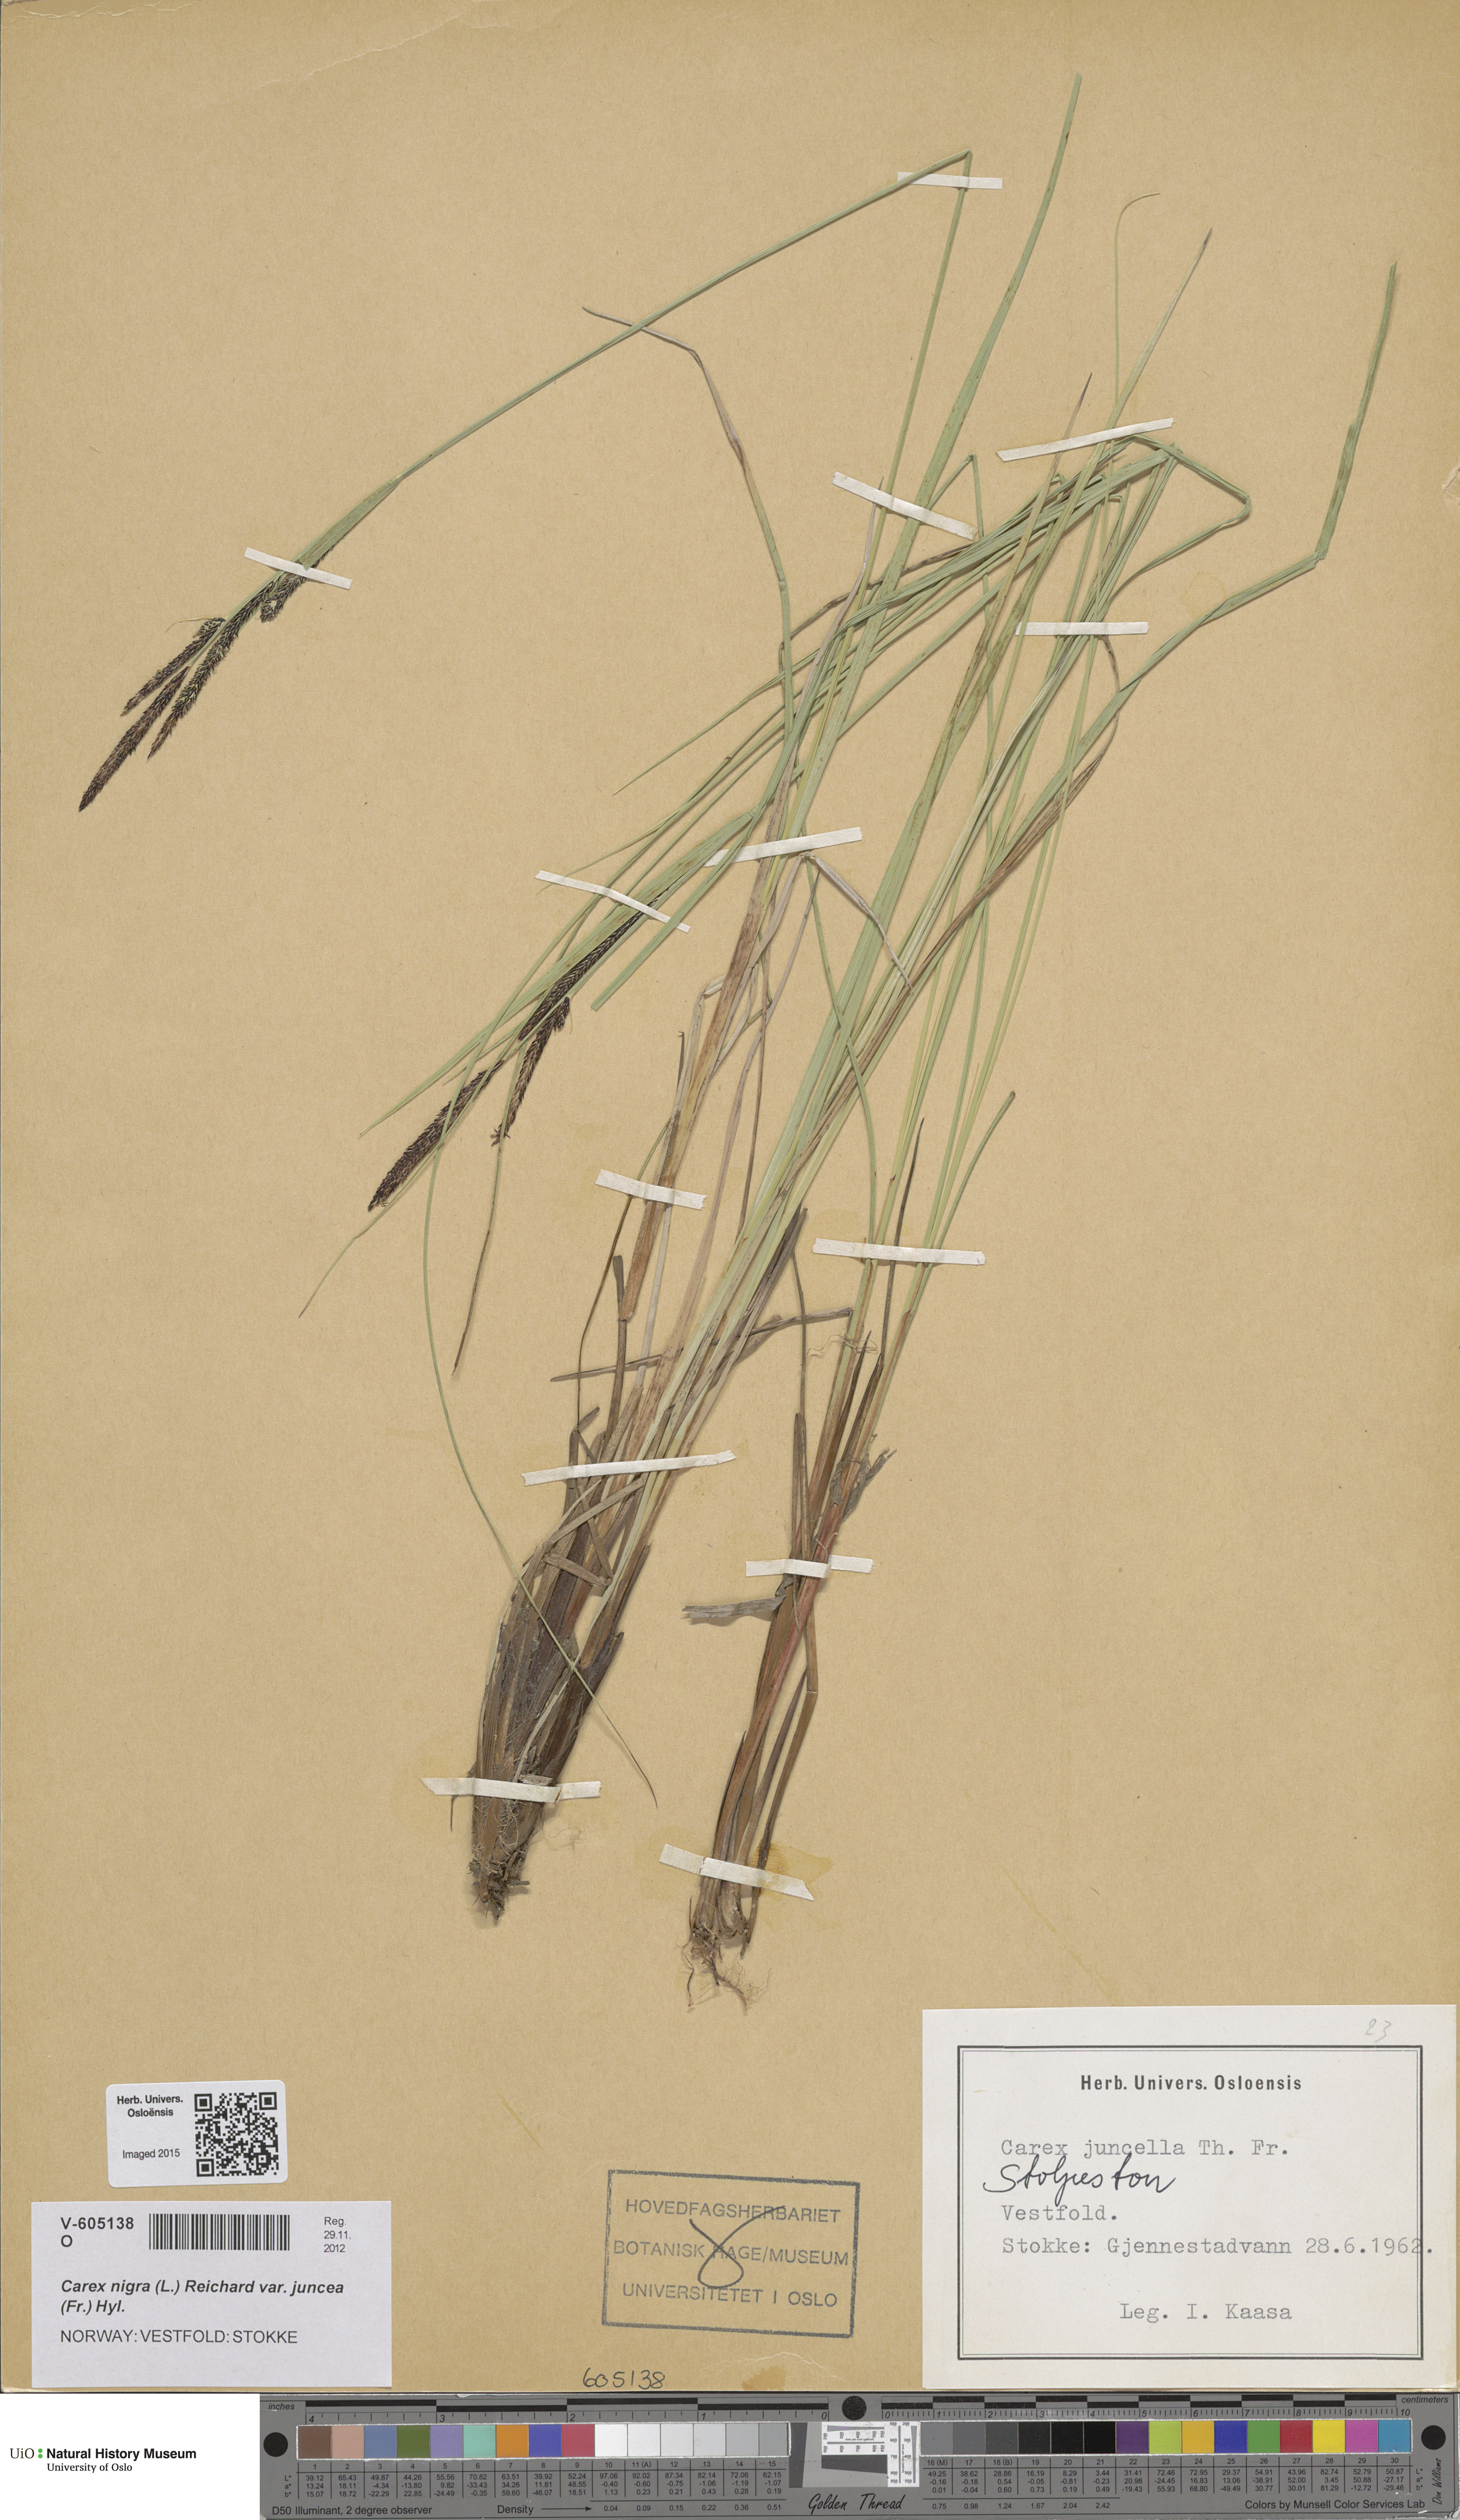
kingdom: Plantae
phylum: Tracheophyta
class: Liliopsida
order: Poales
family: Cyperaceae
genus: Carex
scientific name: Carex nigra
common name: Common sedge
